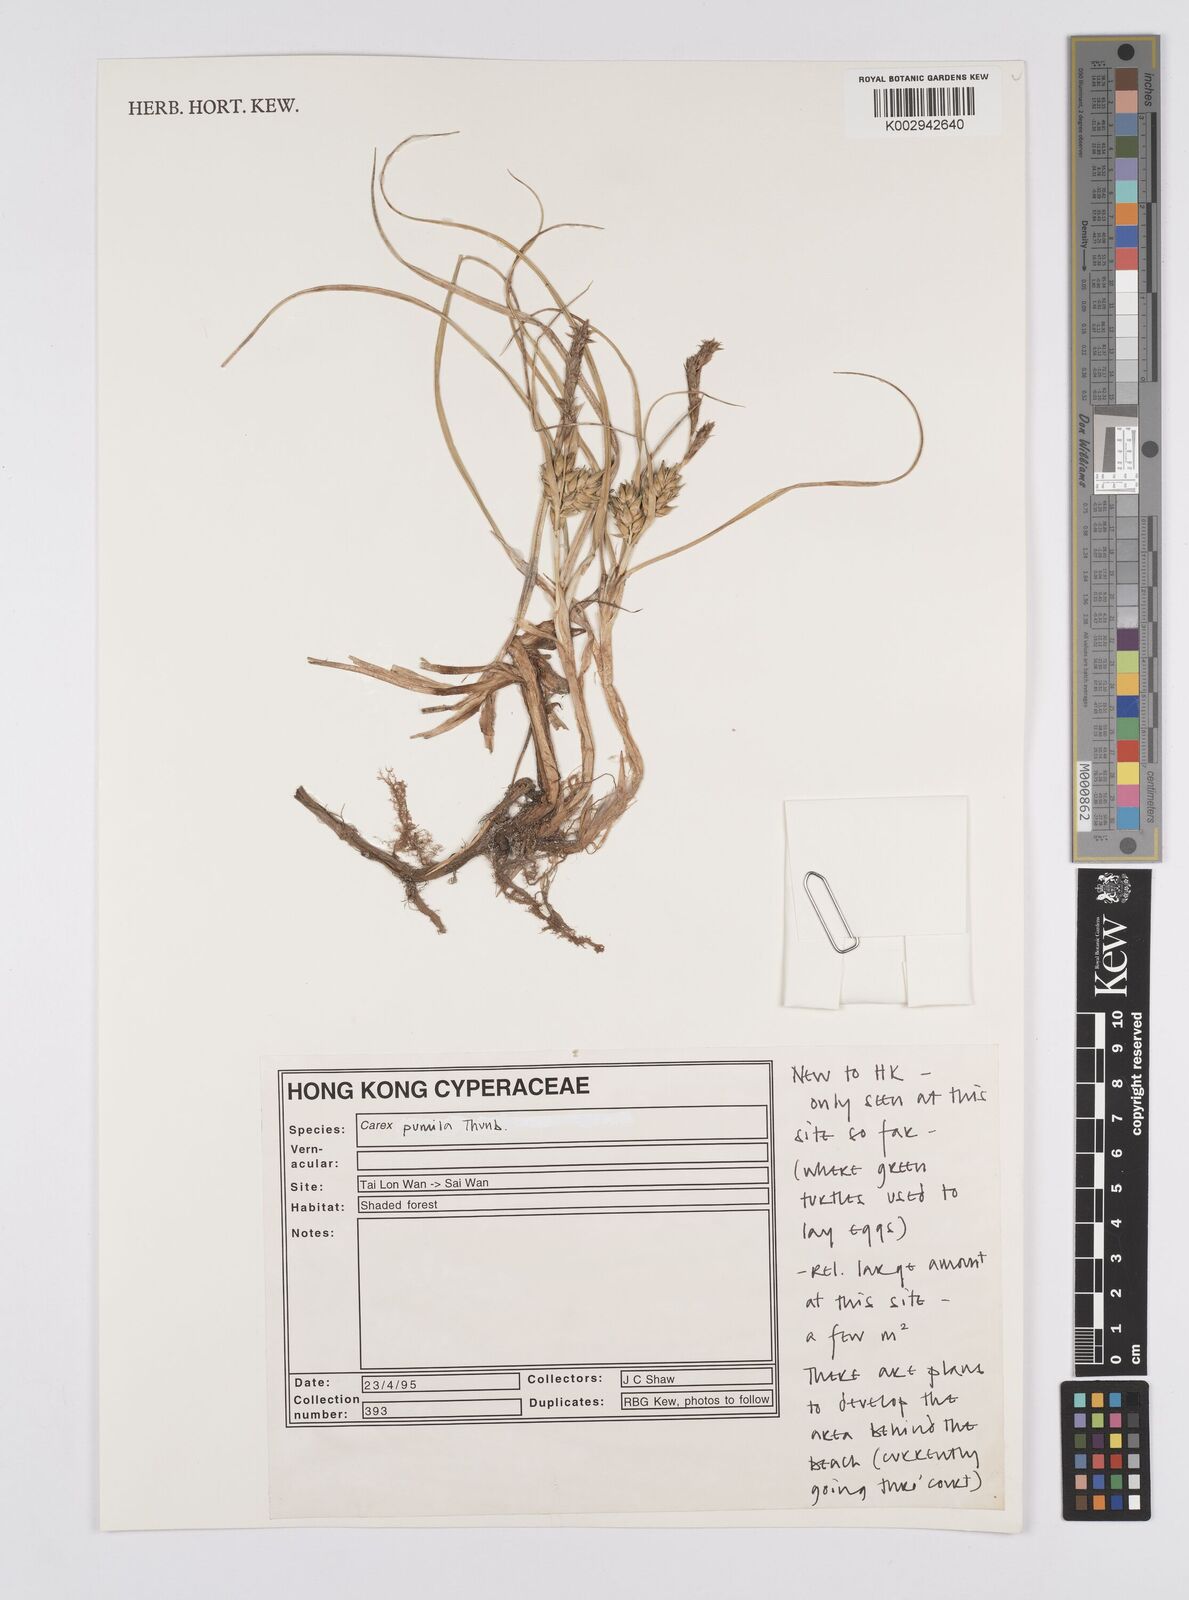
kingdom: Plantae
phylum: Tracheophyta
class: Liliopsida
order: Poales
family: Cyperaceae
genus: Carex
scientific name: Carex pumila
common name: Dwarf sedge
